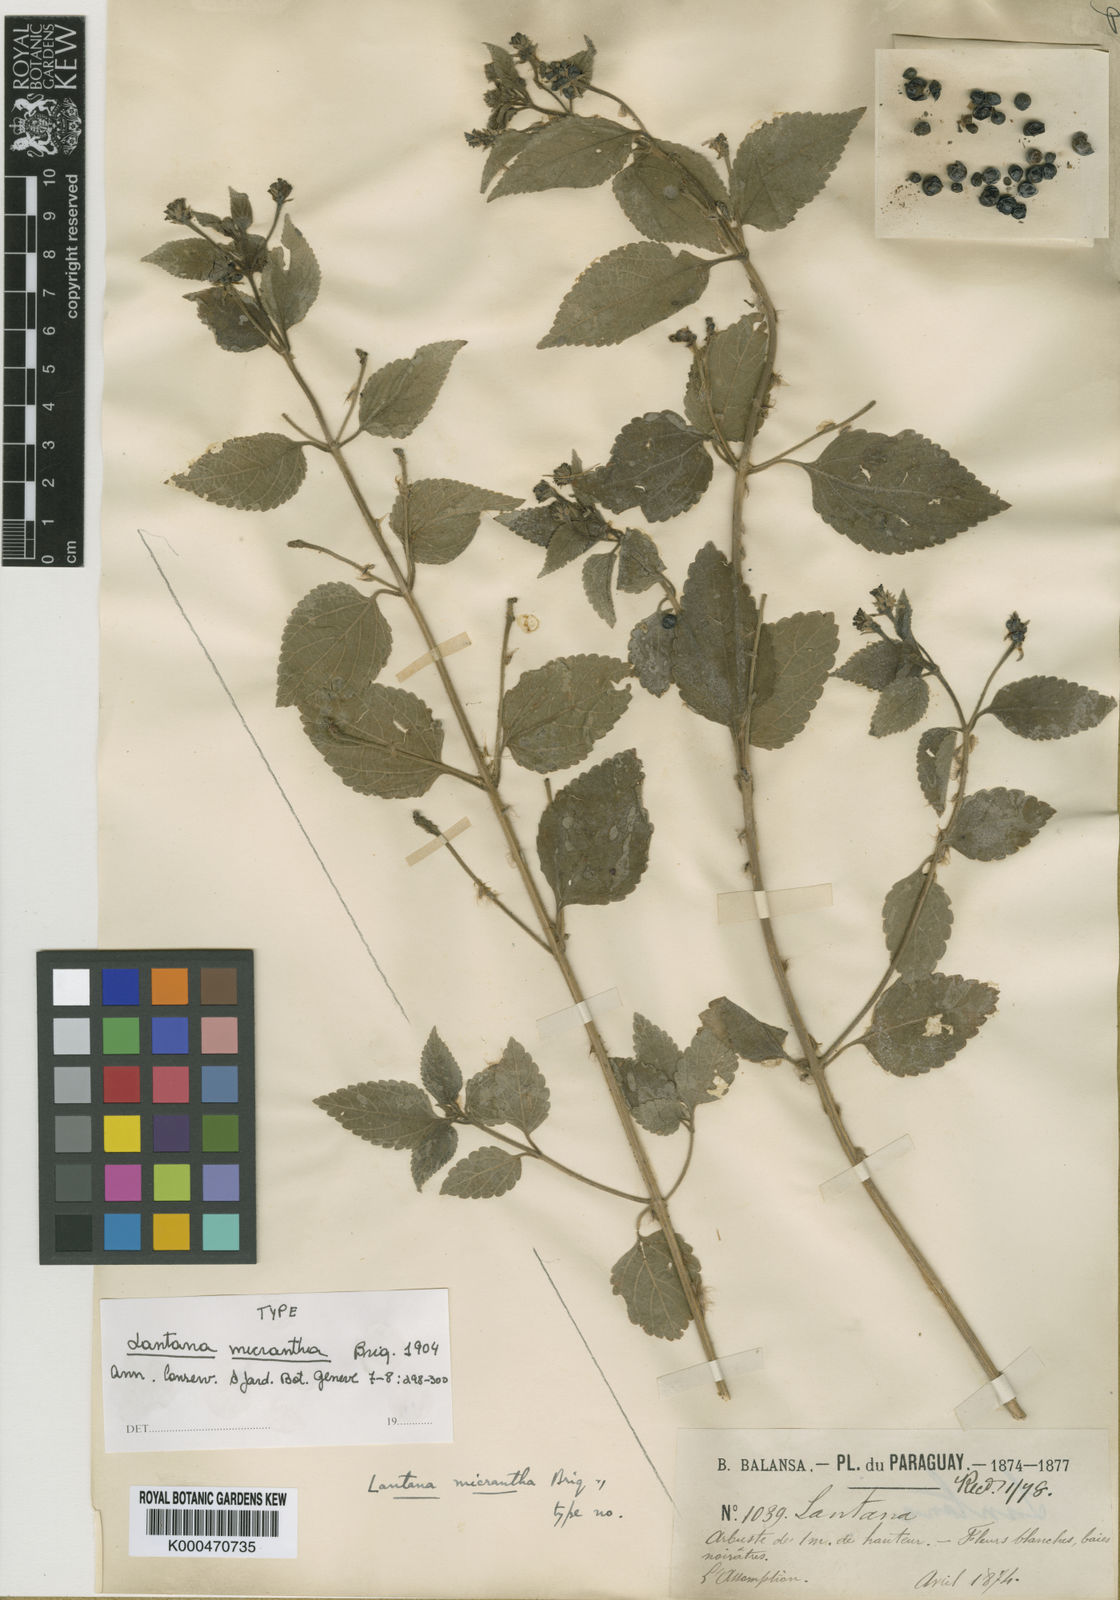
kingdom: Plantae
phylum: Tracheophyta
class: Magnoliopsida
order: Lamiales
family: Verbenaceae
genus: Lantana
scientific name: Lantana micrantha
